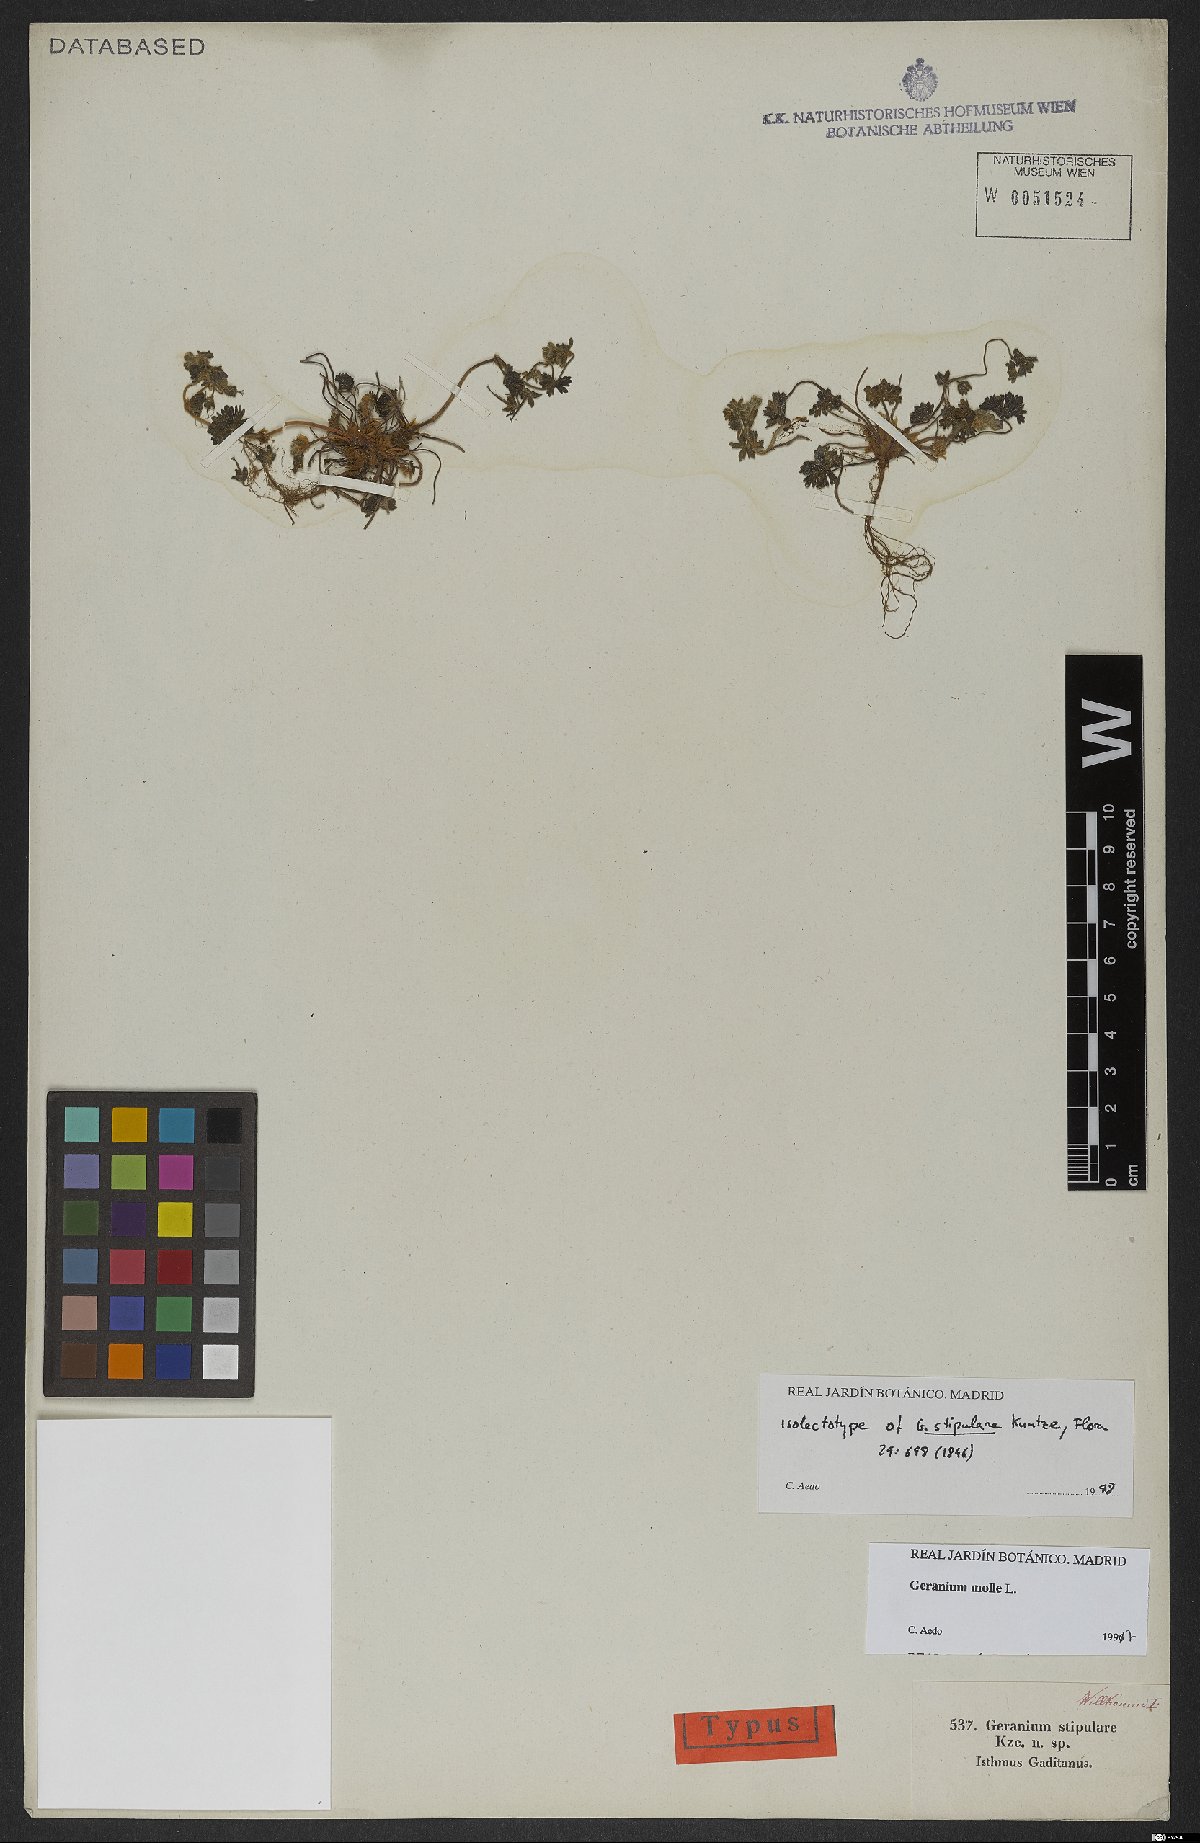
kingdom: Plantae
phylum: Tracheophyta
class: Magnoliopsida
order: Geraniales
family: Geraniaceae
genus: Geranium
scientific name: Geranium molle
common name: Dove's-foot crane's-bill
